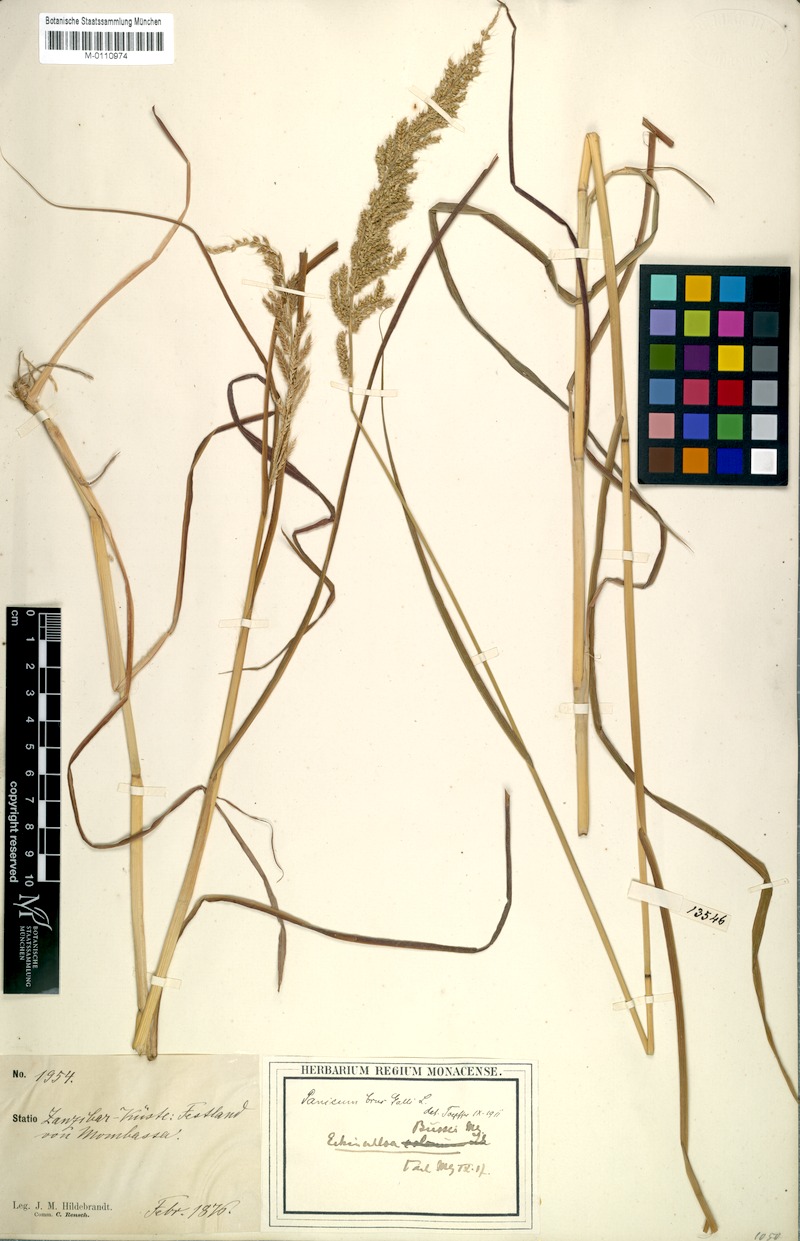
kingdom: Plantae
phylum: Tracheophyta
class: Liliopsida
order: Poales
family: Poaceae
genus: Echinochloa
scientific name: Echinochloa haploclada
